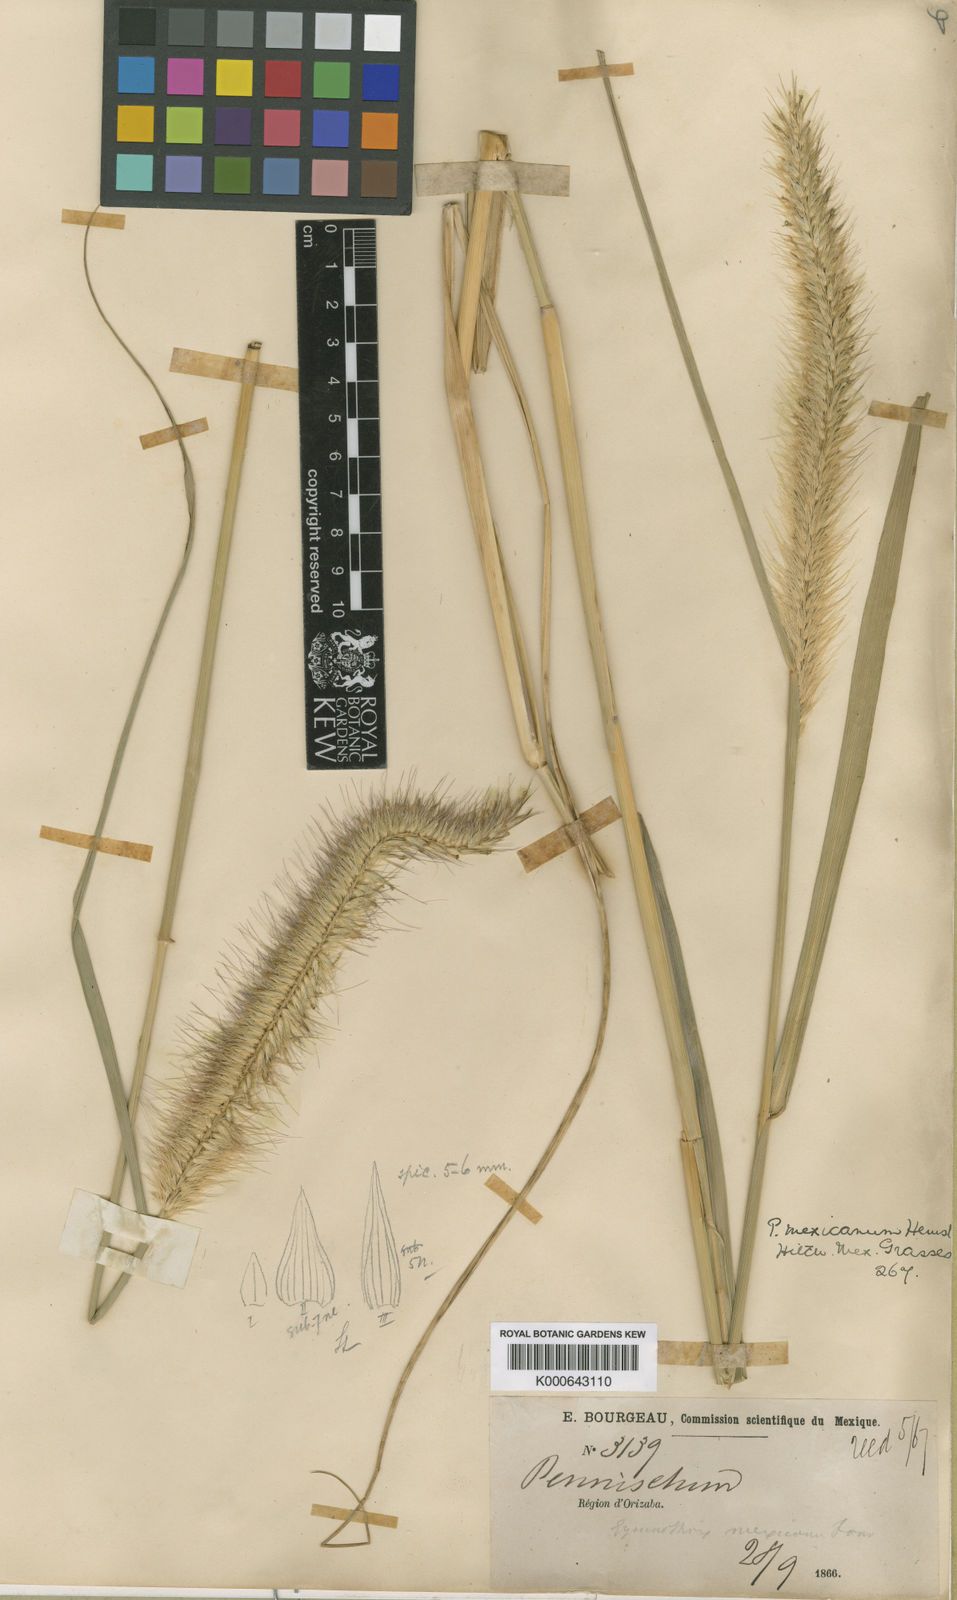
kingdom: Plantae
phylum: Tracheophyta
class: Liliopsida
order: Poales
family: Poaceae
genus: Cenchrus
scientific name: Cenchrus complanatus
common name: Nicaraguan fountaingrass
